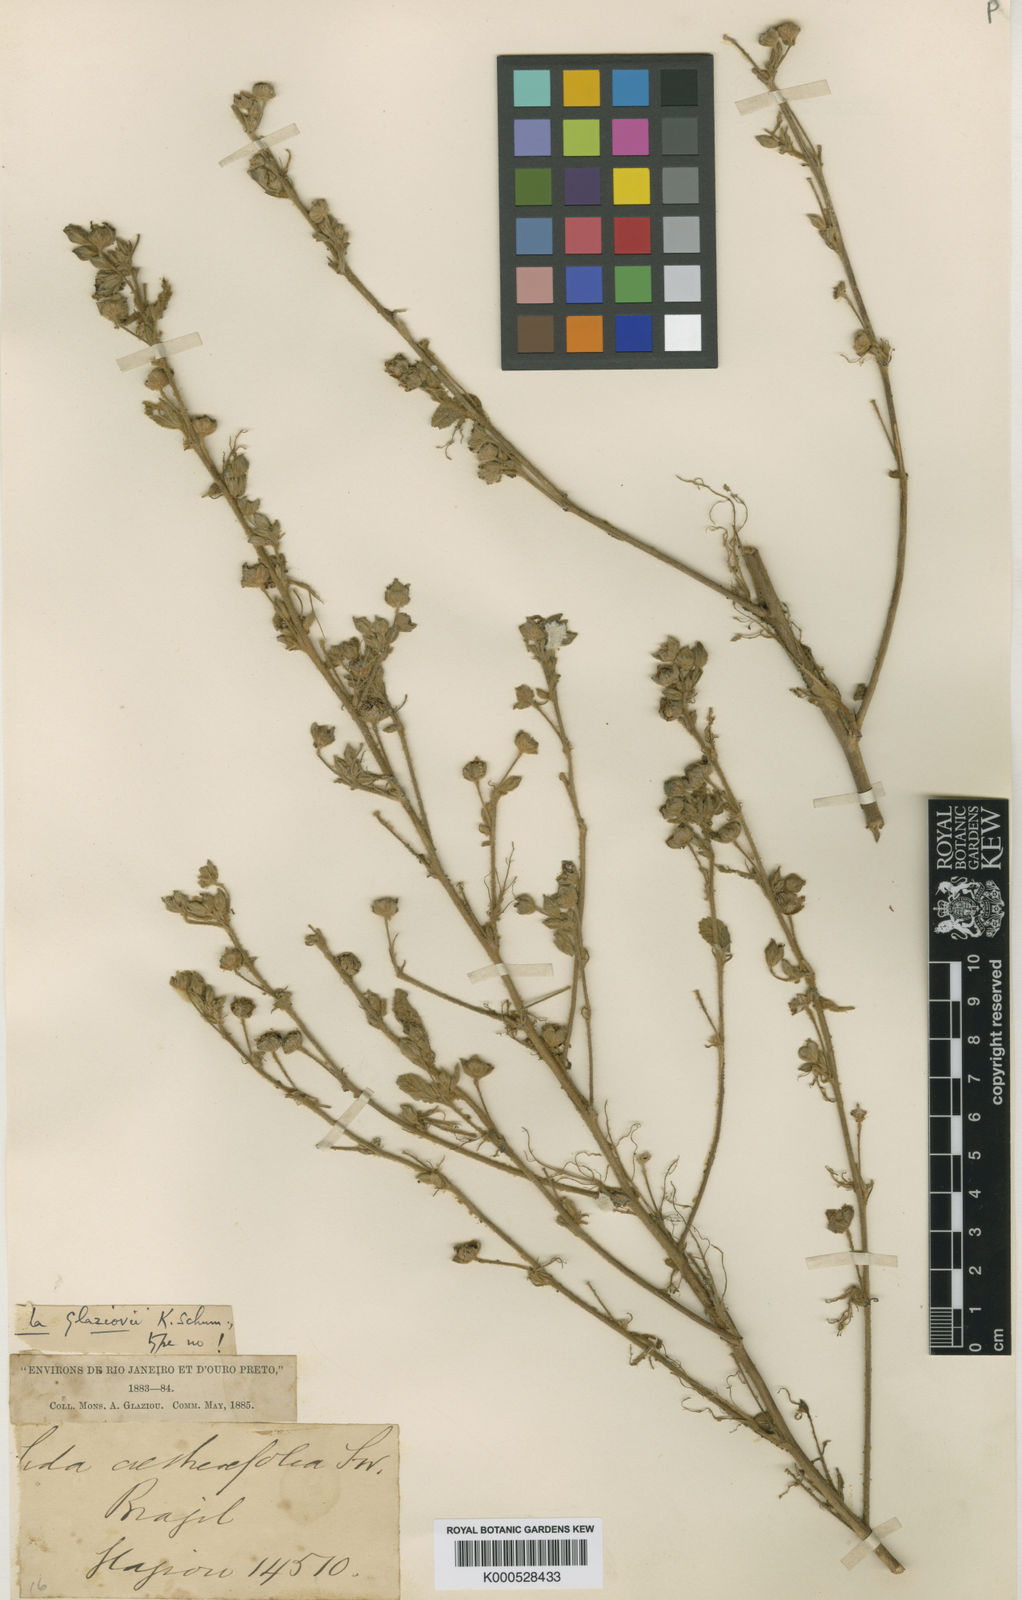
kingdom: Plantae
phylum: Tracheophyta
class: Magnoliopsida
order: Malvales
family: Malvaceae
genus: Sida
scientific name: Sida glaziovii
